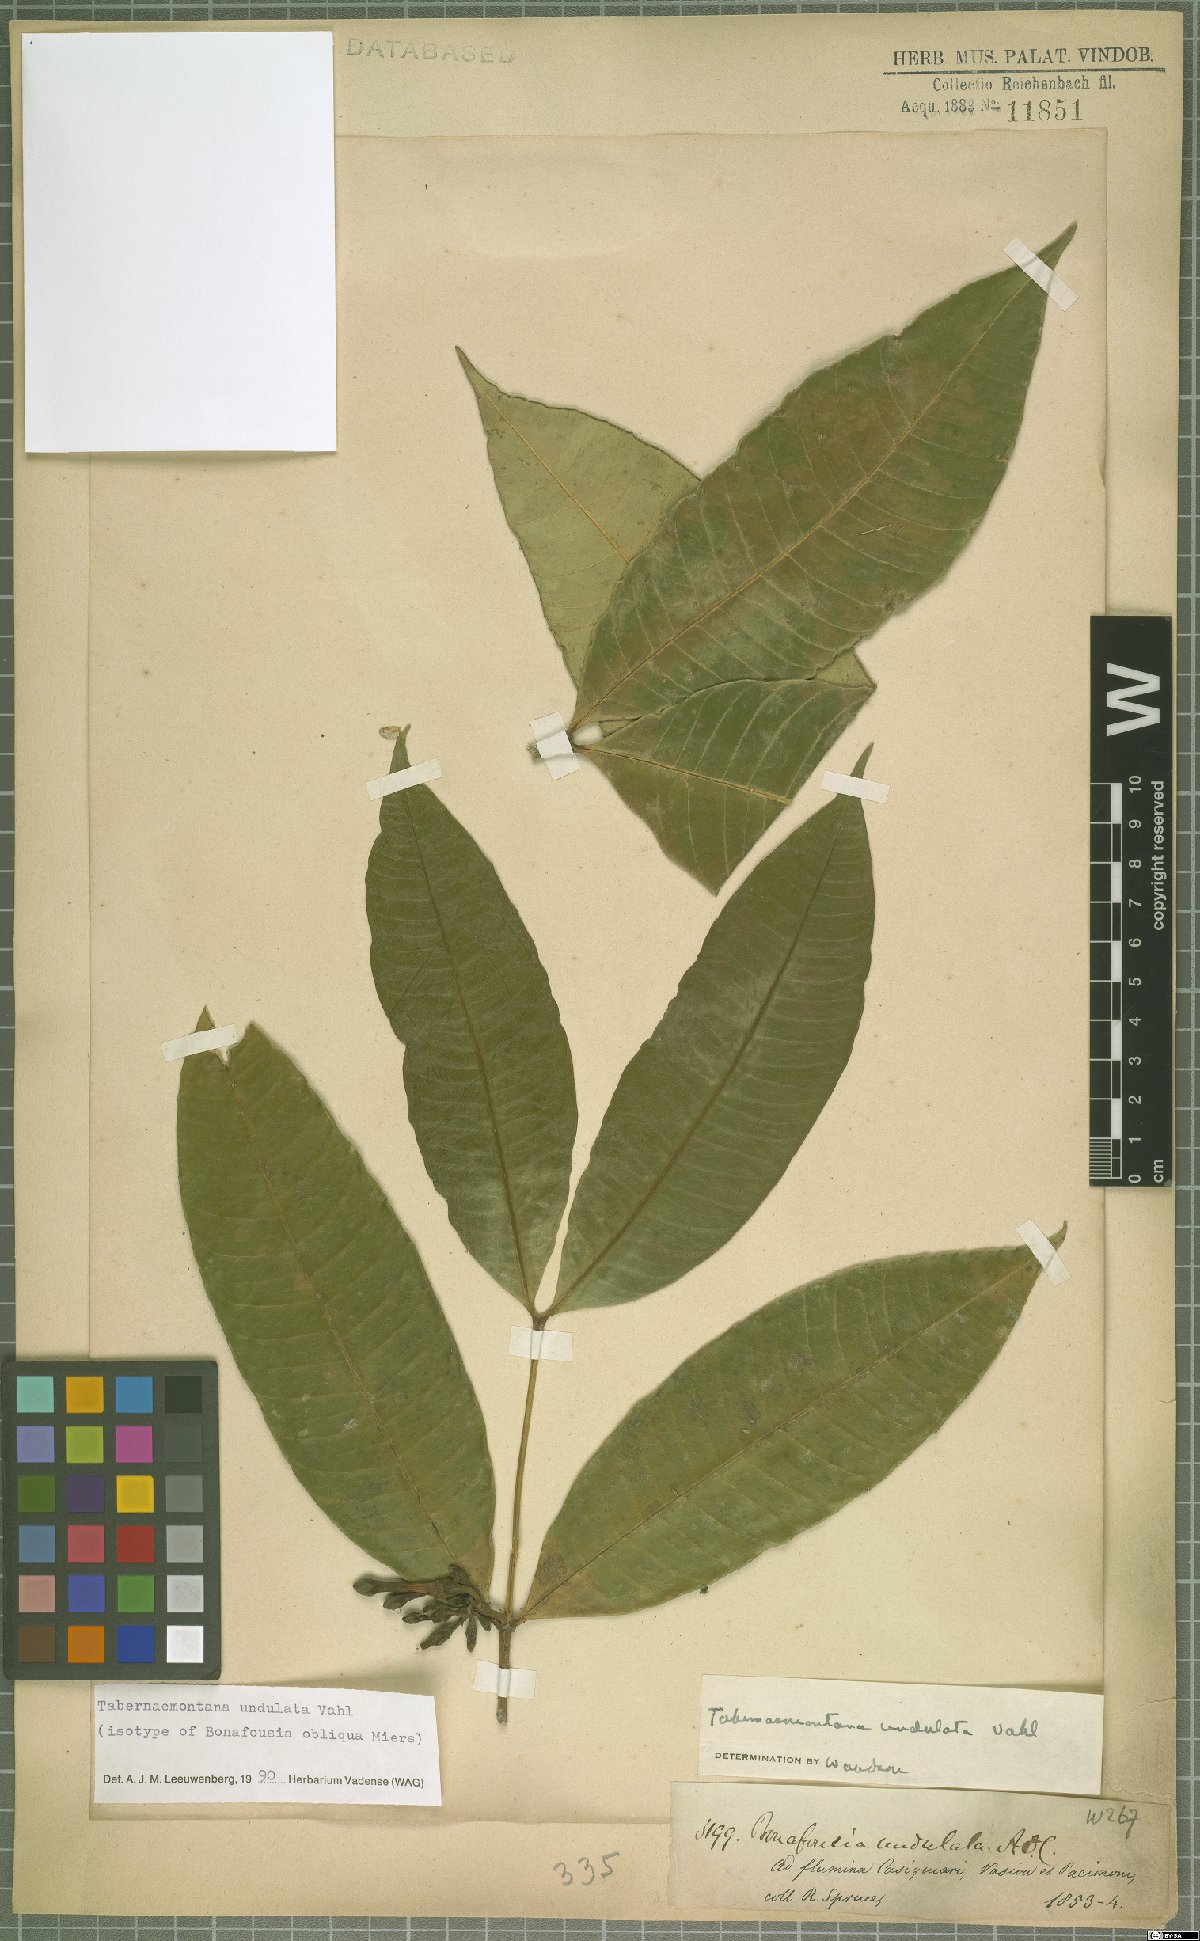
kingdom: Plantae
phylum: Tracheophyta
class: Magnoliopsida
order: Gentianales
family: Apocynaceae
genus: Tabernaemontana
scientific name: Tabernaemontana undulata
